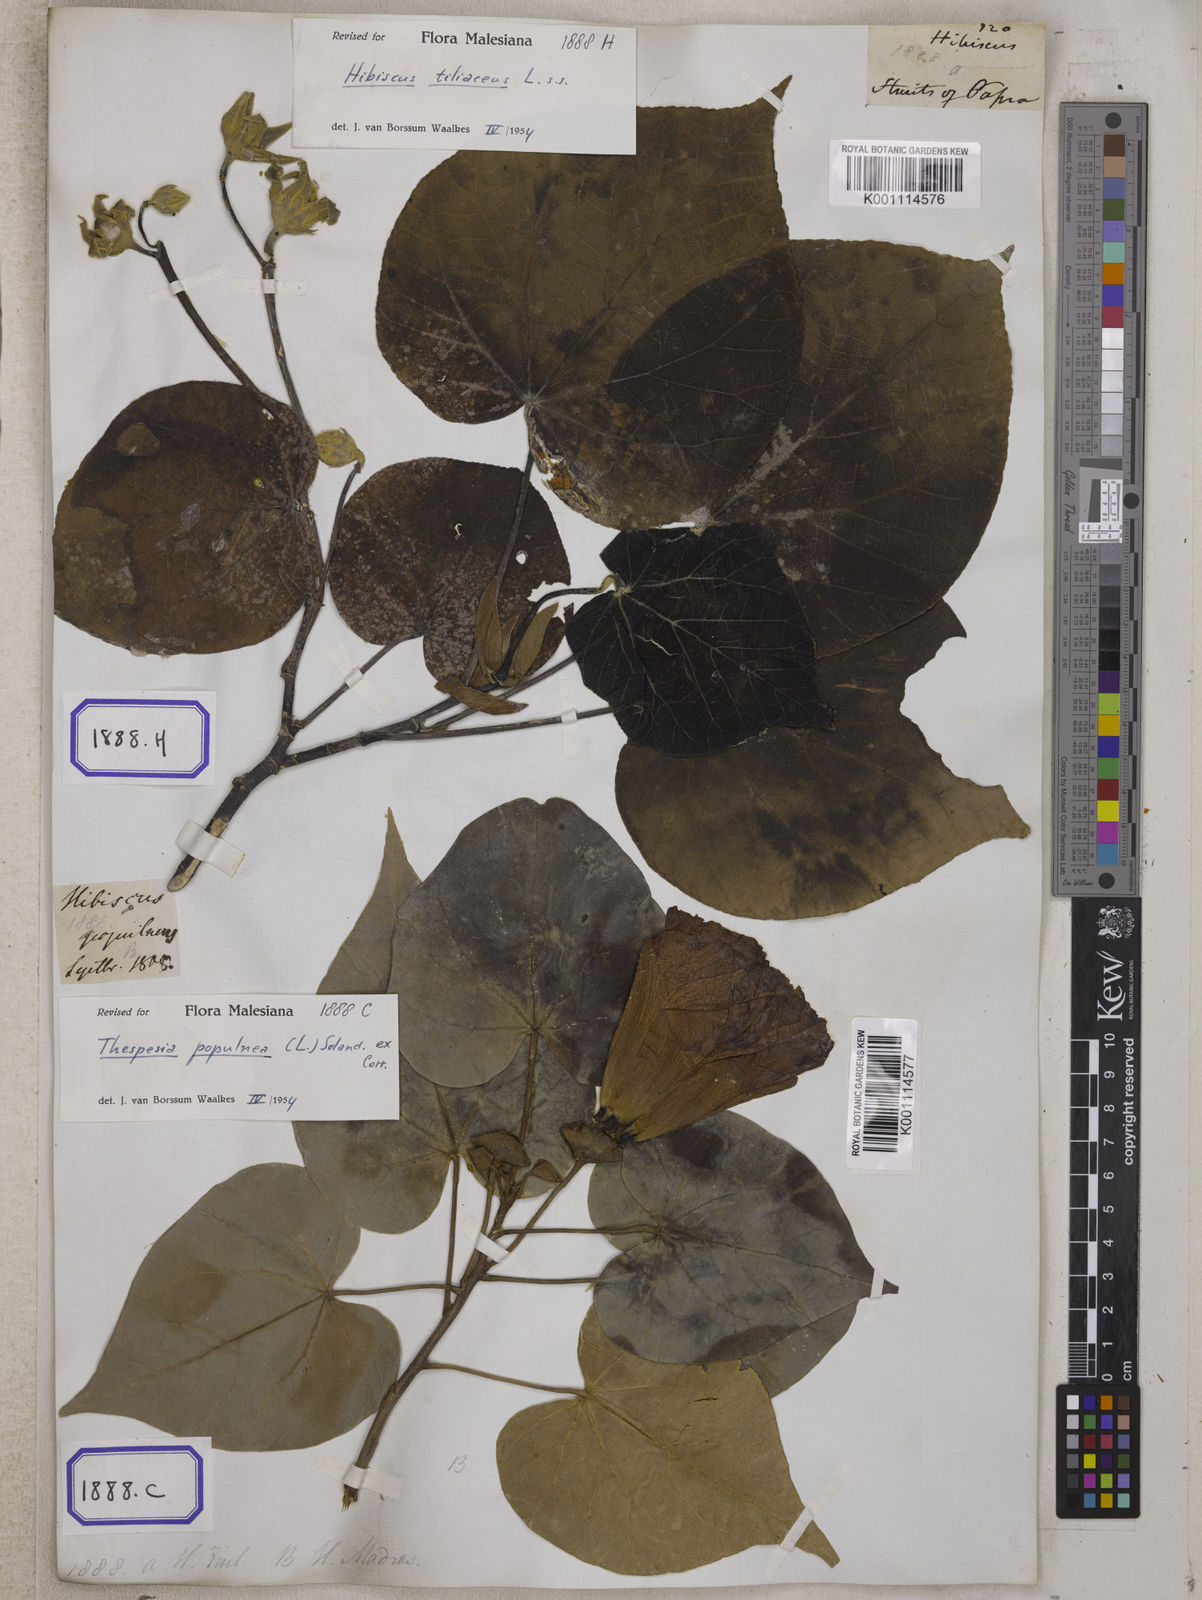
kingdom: Plantae
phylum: Tracheophyta
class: Magnoliopsida
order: Malvales
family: Malvaceae
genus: Thespesia
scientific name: Thespesia populnea
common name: Seaside mahoe
